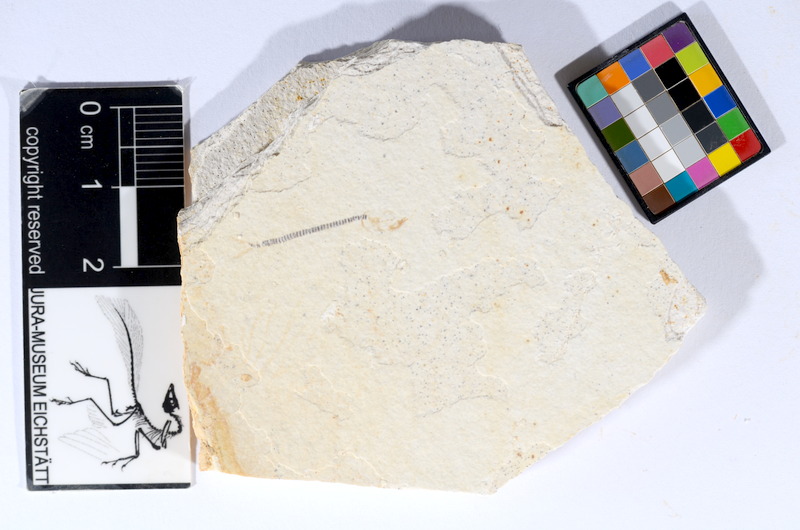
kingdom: Animalia
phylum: Chordata
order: Salmoniformes
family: Orthogonikleithridae
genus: Orthogonikleithrus
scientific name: Orthogonikleithrus hoelli
